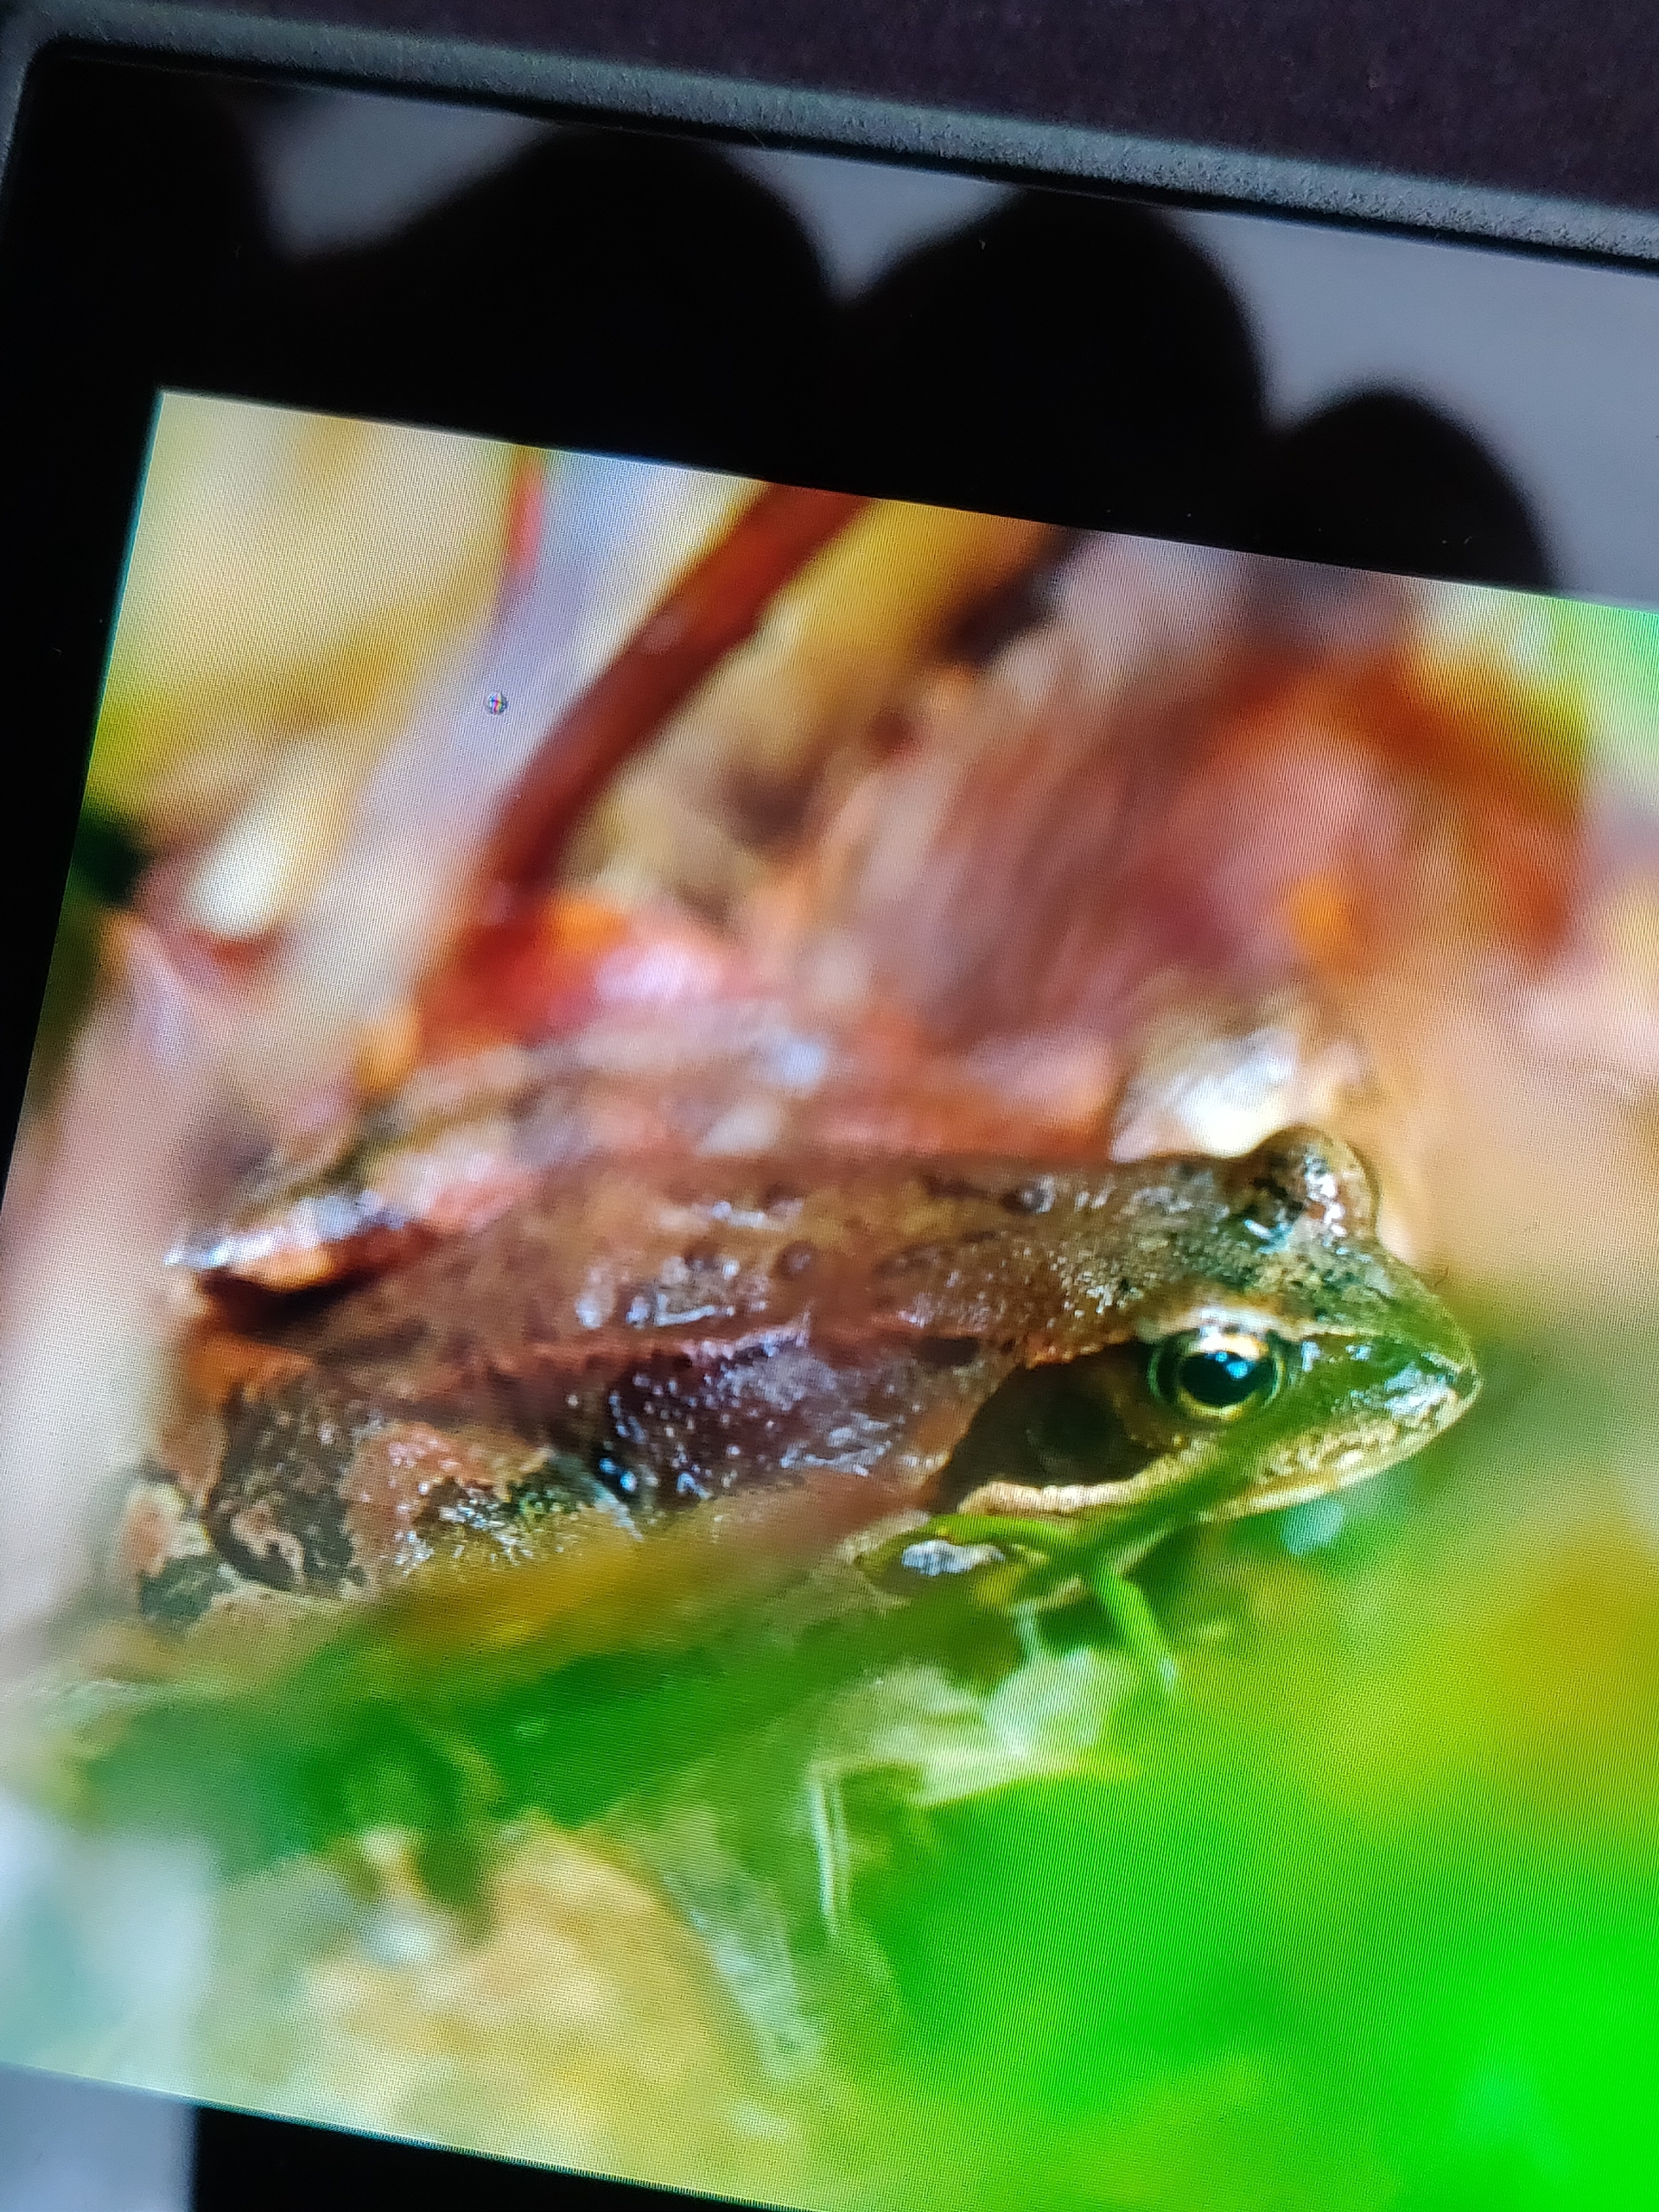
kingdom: Animalia
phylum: Chordata
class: Amphibia
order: Anura
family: Ranidae
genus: Rana
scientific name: Rana temporaria
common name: Butsnudet frø
